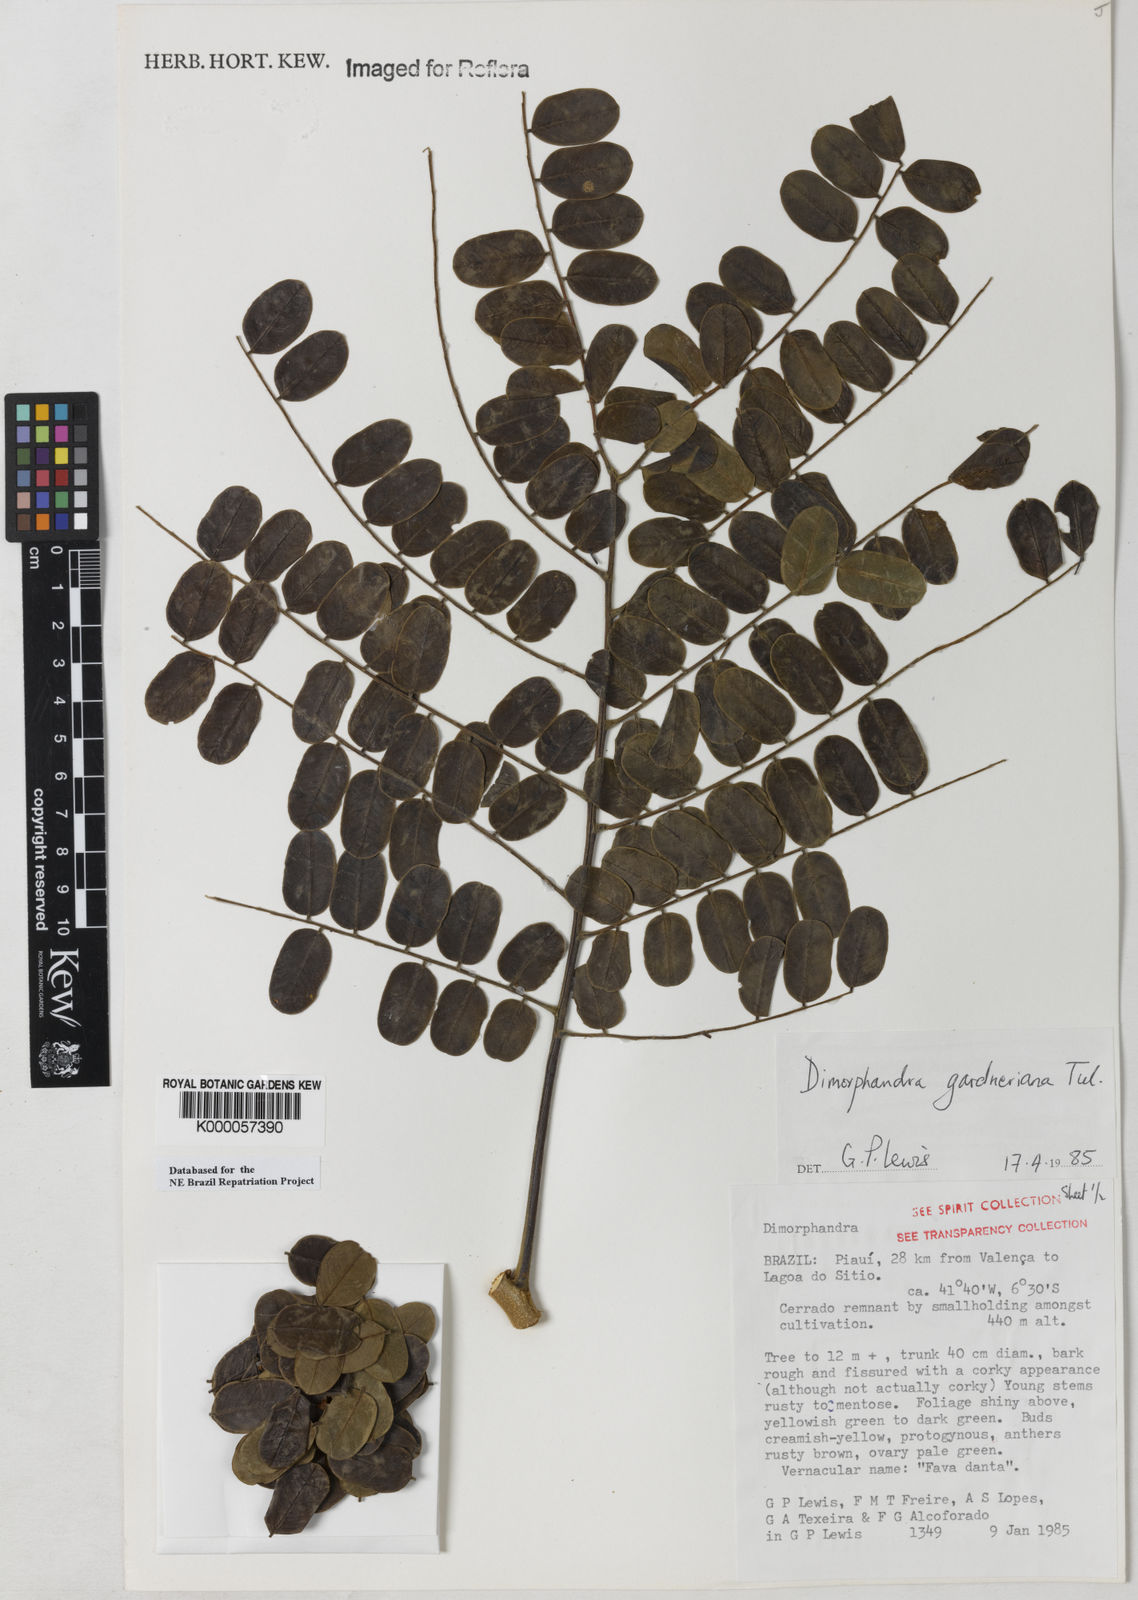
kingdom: Plantae
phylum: Tracheophyta
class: Magnoliopsida
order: Fabales
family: Fabaceae
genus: Dimorphandra
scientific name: Dimorphandra gardneriana
